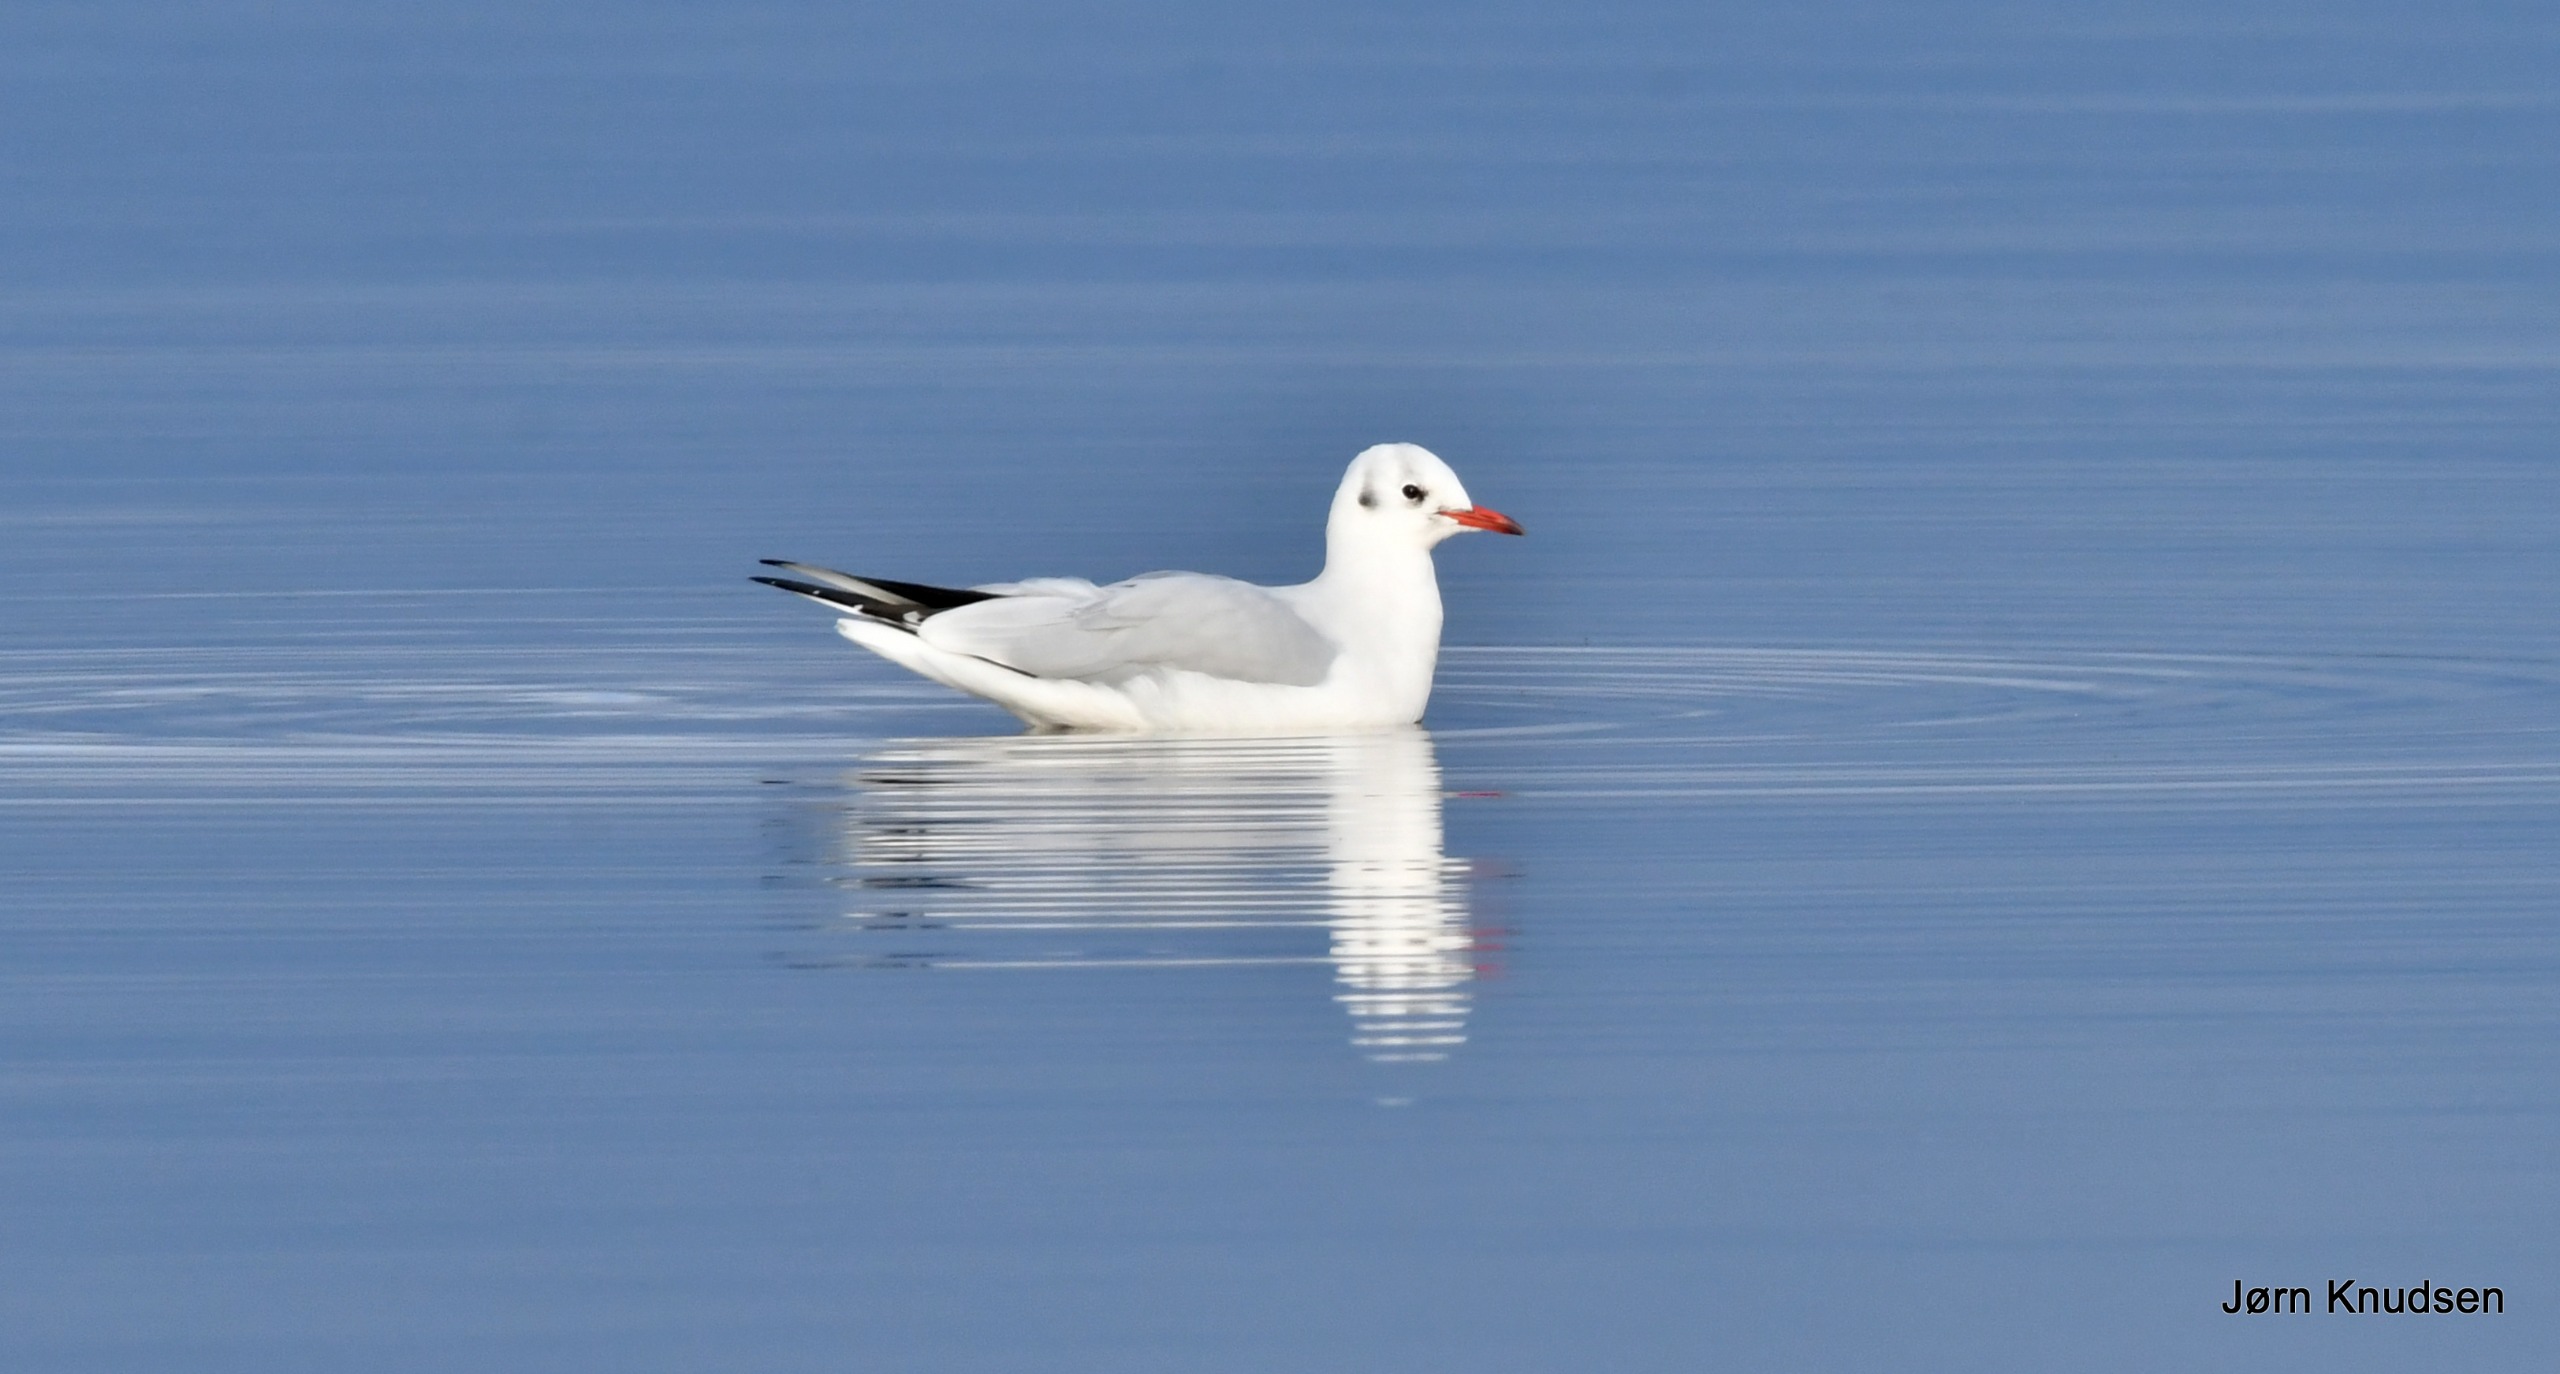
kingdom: Animalia
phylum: Chordata
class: Aves
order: Charadriiformes
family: Laridae
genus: Chroicocephalus
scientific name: Chroicocephalus ridibundus
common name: Hættemåge
